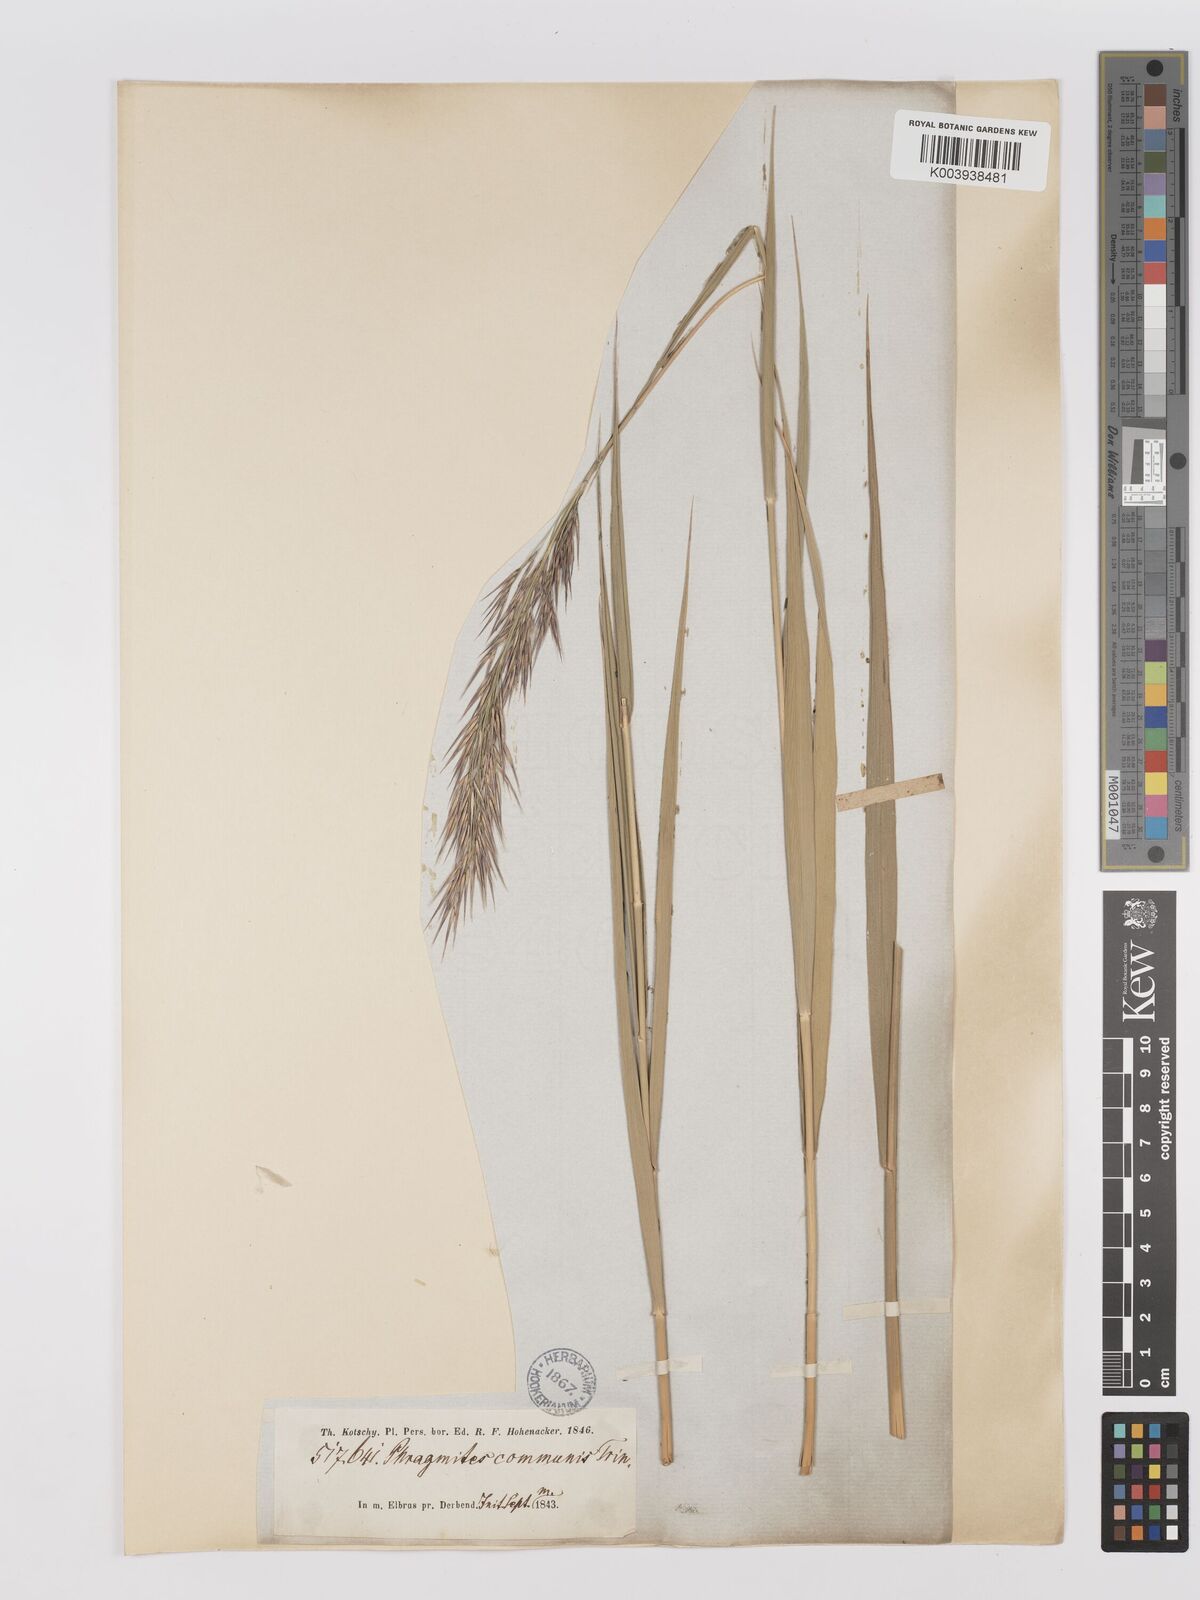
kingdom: Plantae
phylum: Tracheophyta
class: Liliopsida
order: Poales
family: Poaceae
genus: Phragmites
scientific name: Phragmites australis
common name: Common reed
